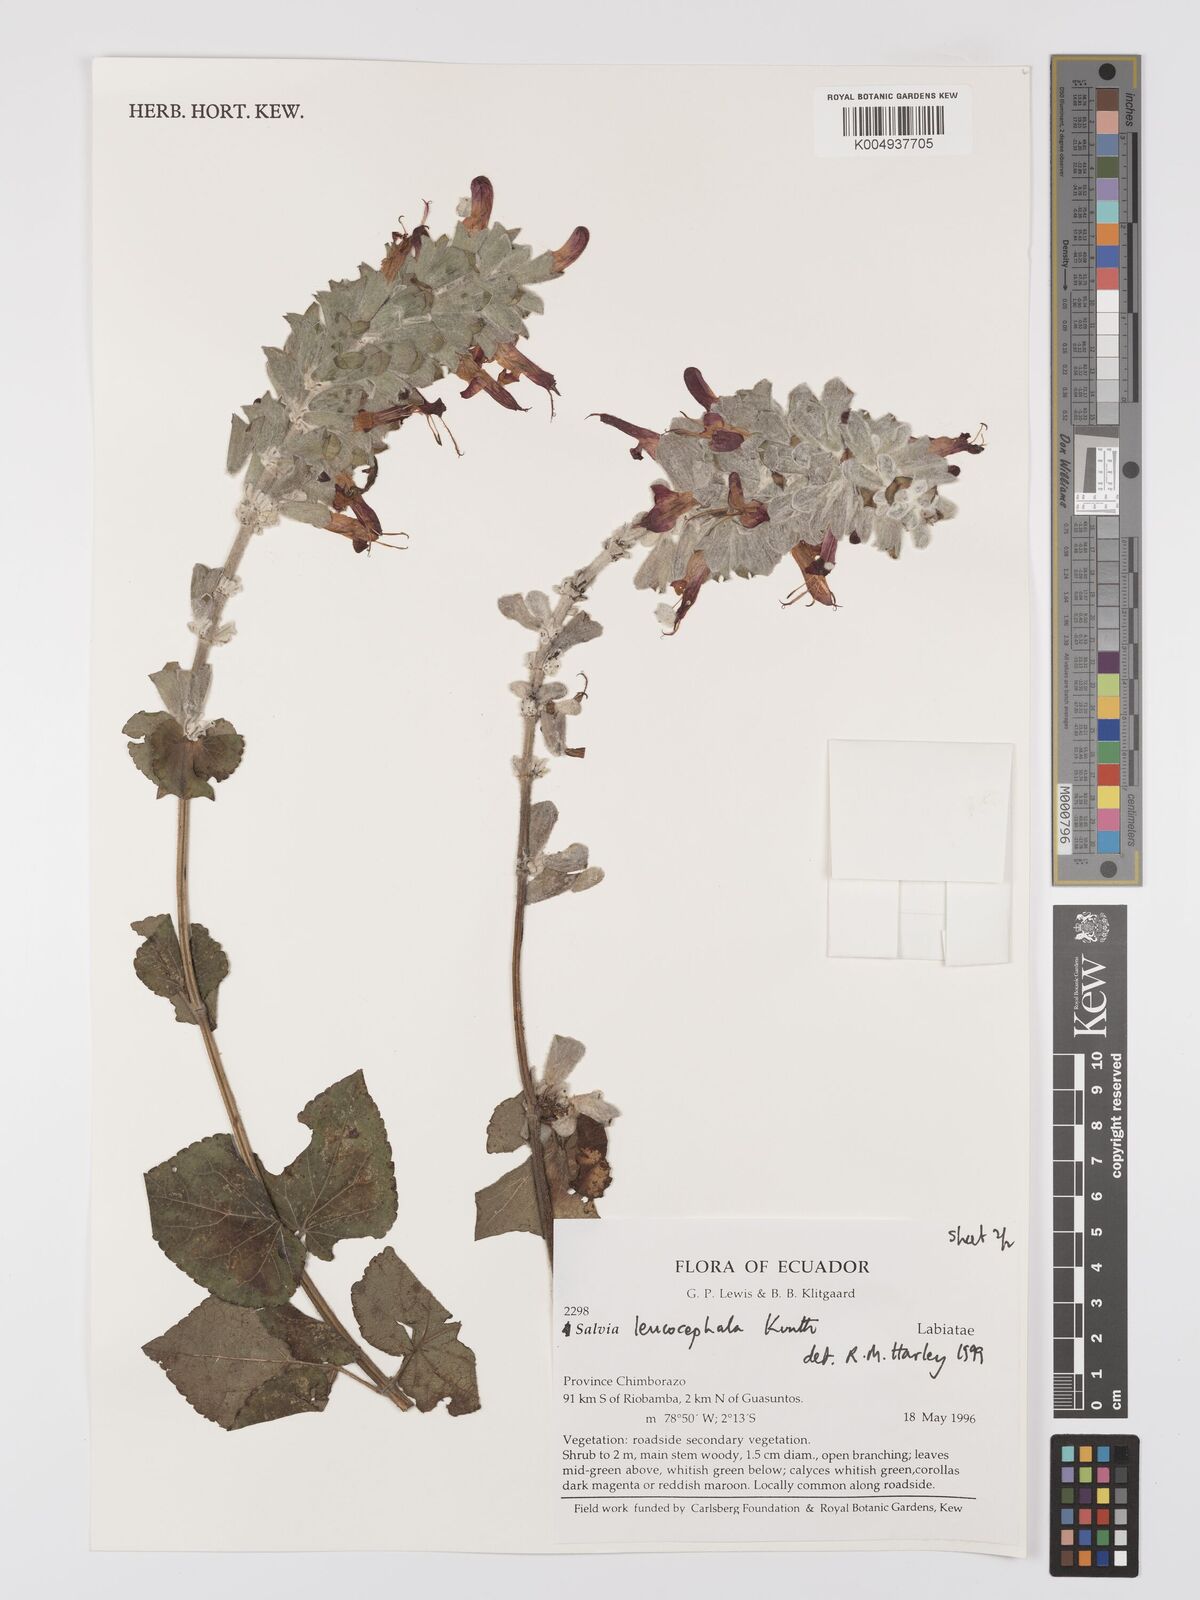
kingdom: Plantae
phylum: Tracheophyta
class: Magnoliopsida
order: Lamiales
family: Lamiaceae
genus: Salvia
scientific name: Salvia leucocephala
